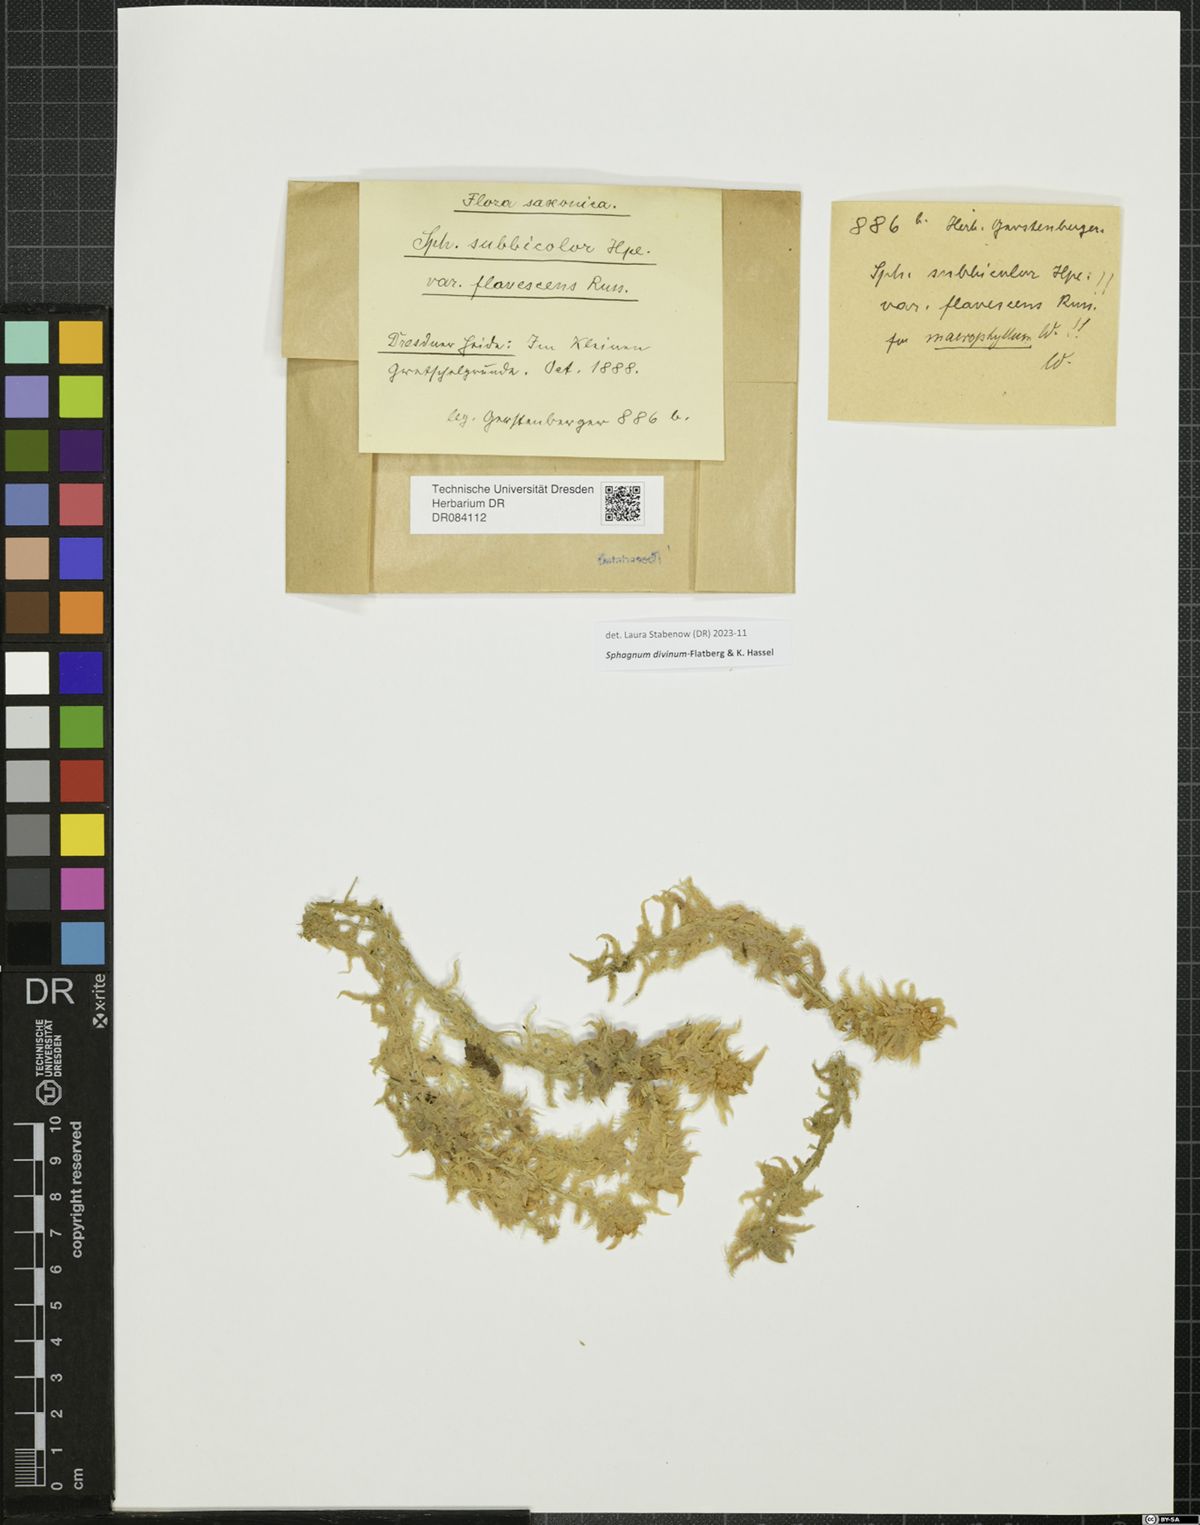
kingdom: Plantae
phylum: Bryophyta
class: Sphagnopsida
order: Sphagnales
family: Sphagnaceae
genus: Sphagnum
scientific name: Sphagnum divinum
